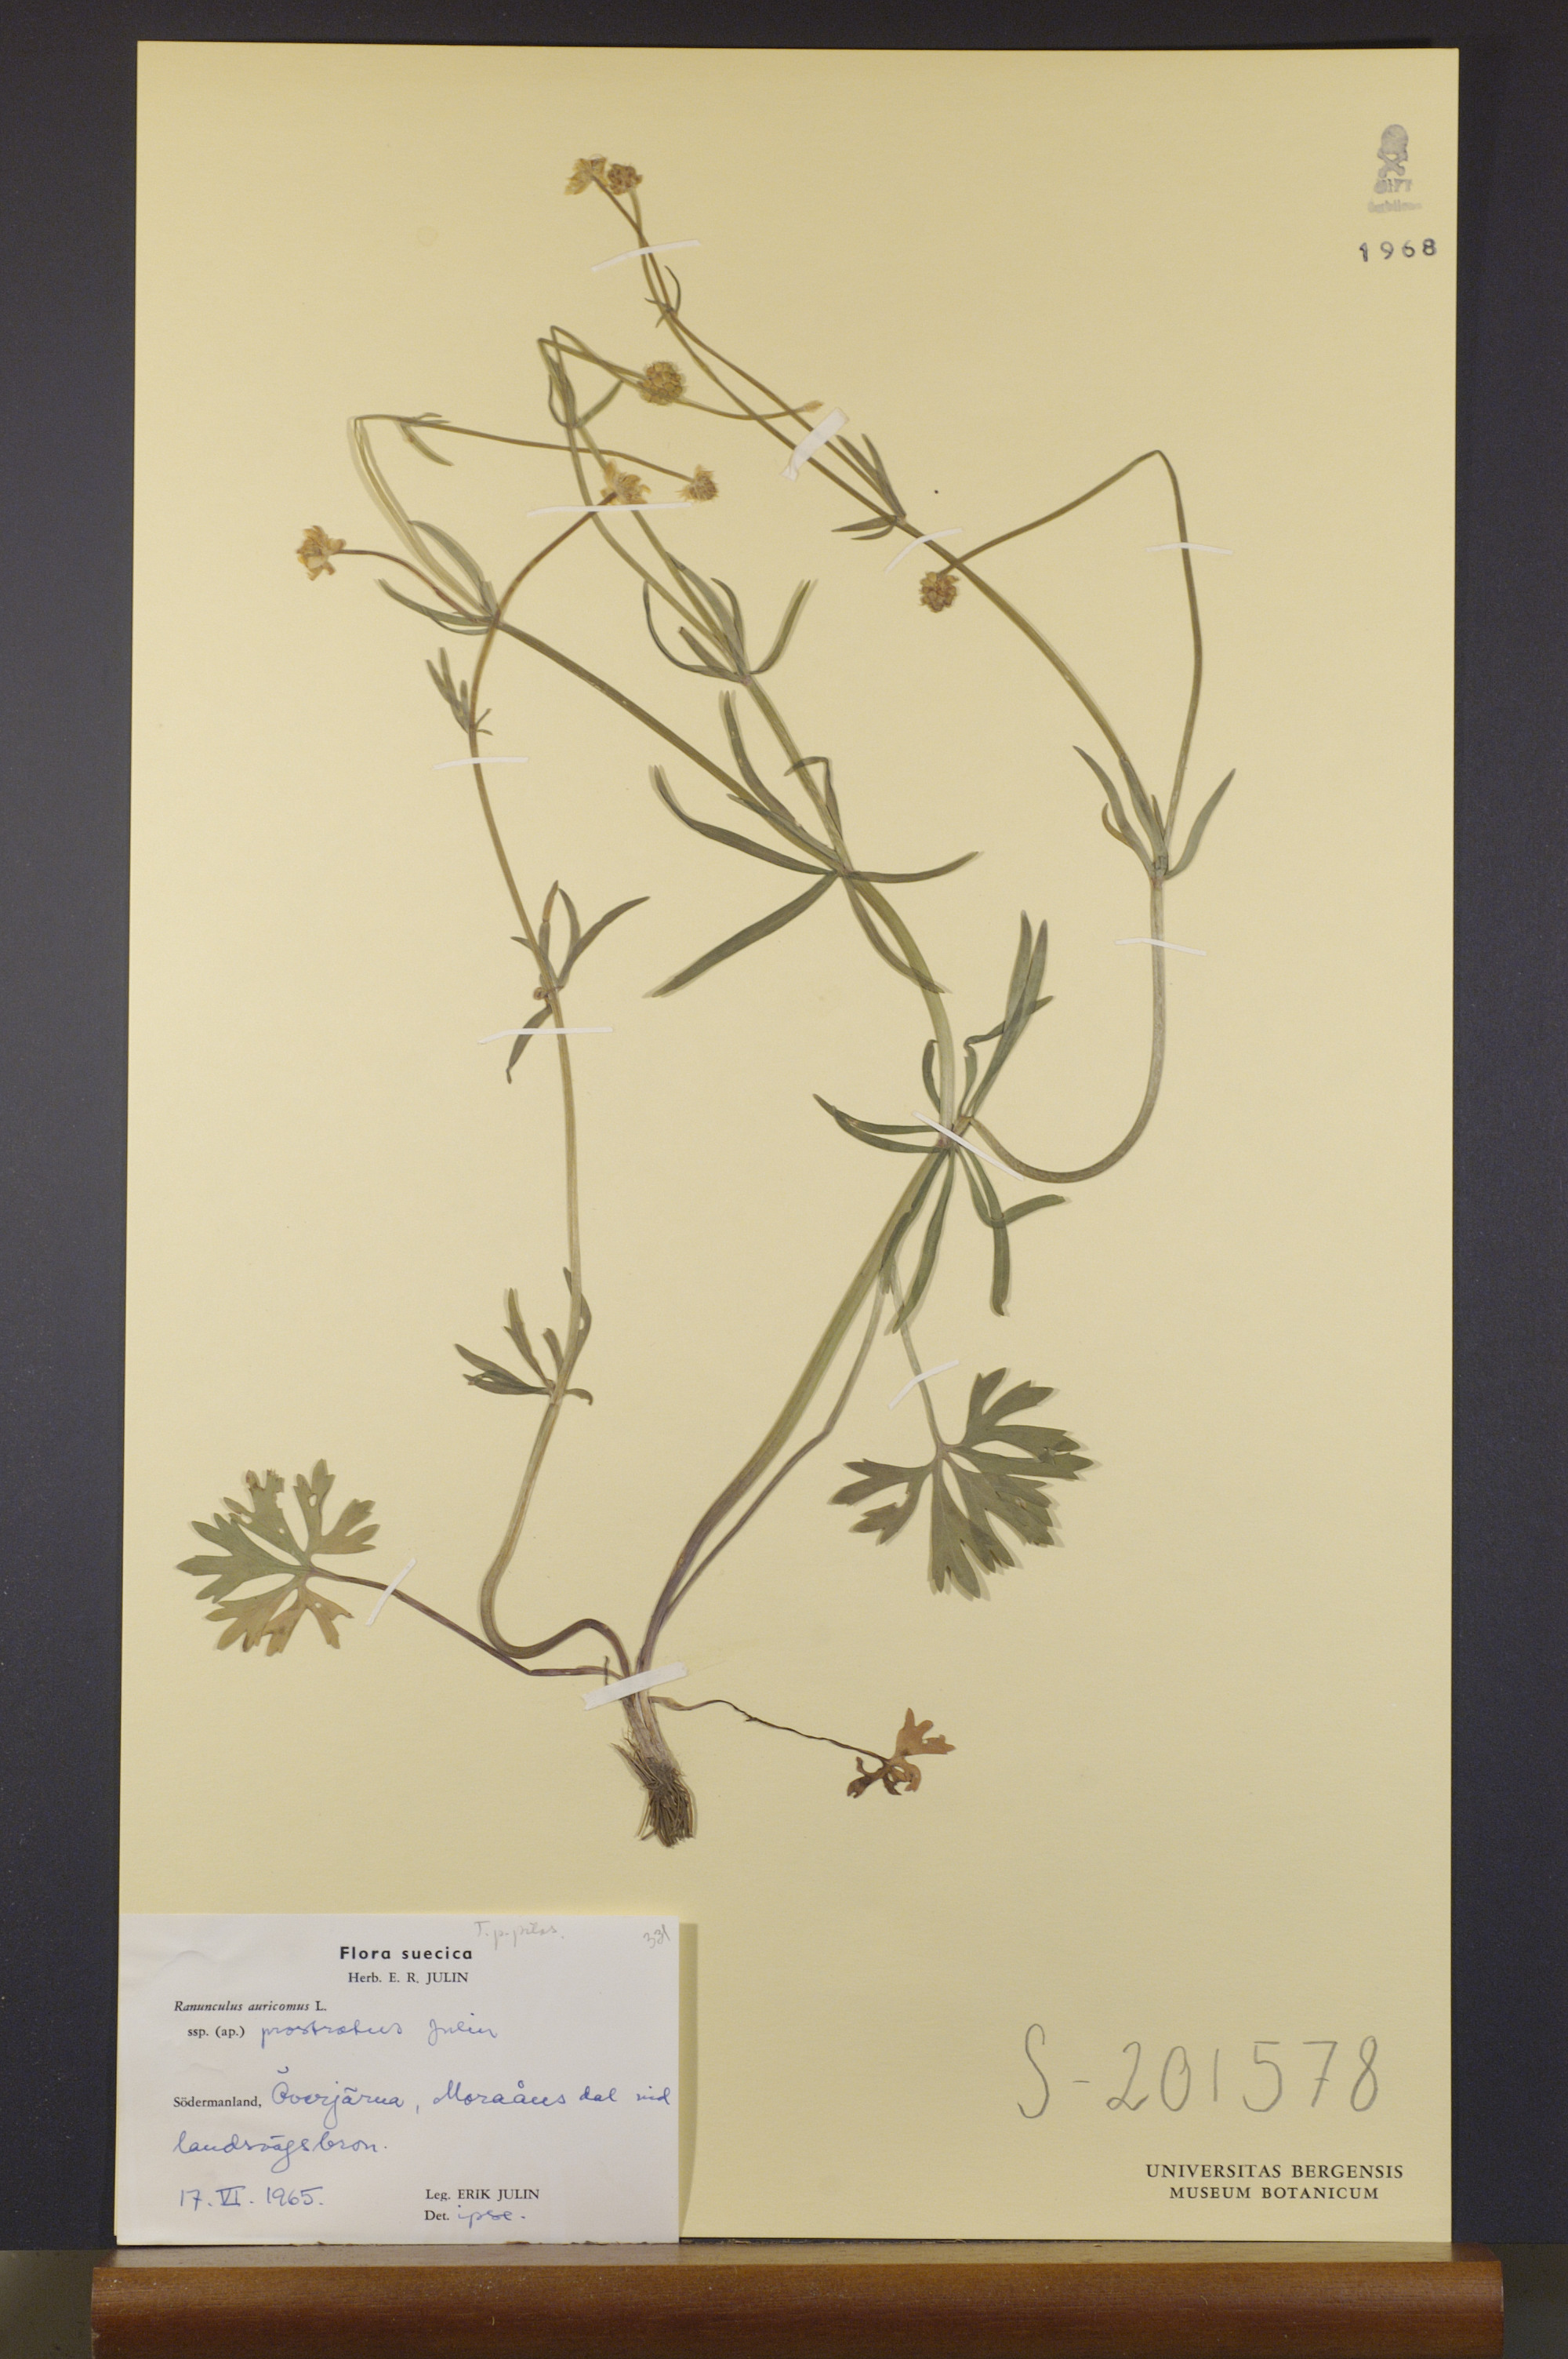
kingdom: Plantae
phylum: Tracheophyta
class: Magnoliopsida
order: Ranunculales
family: Ranunculaceae
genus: Ranunculus
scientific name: Ranunculus sudermannicus
